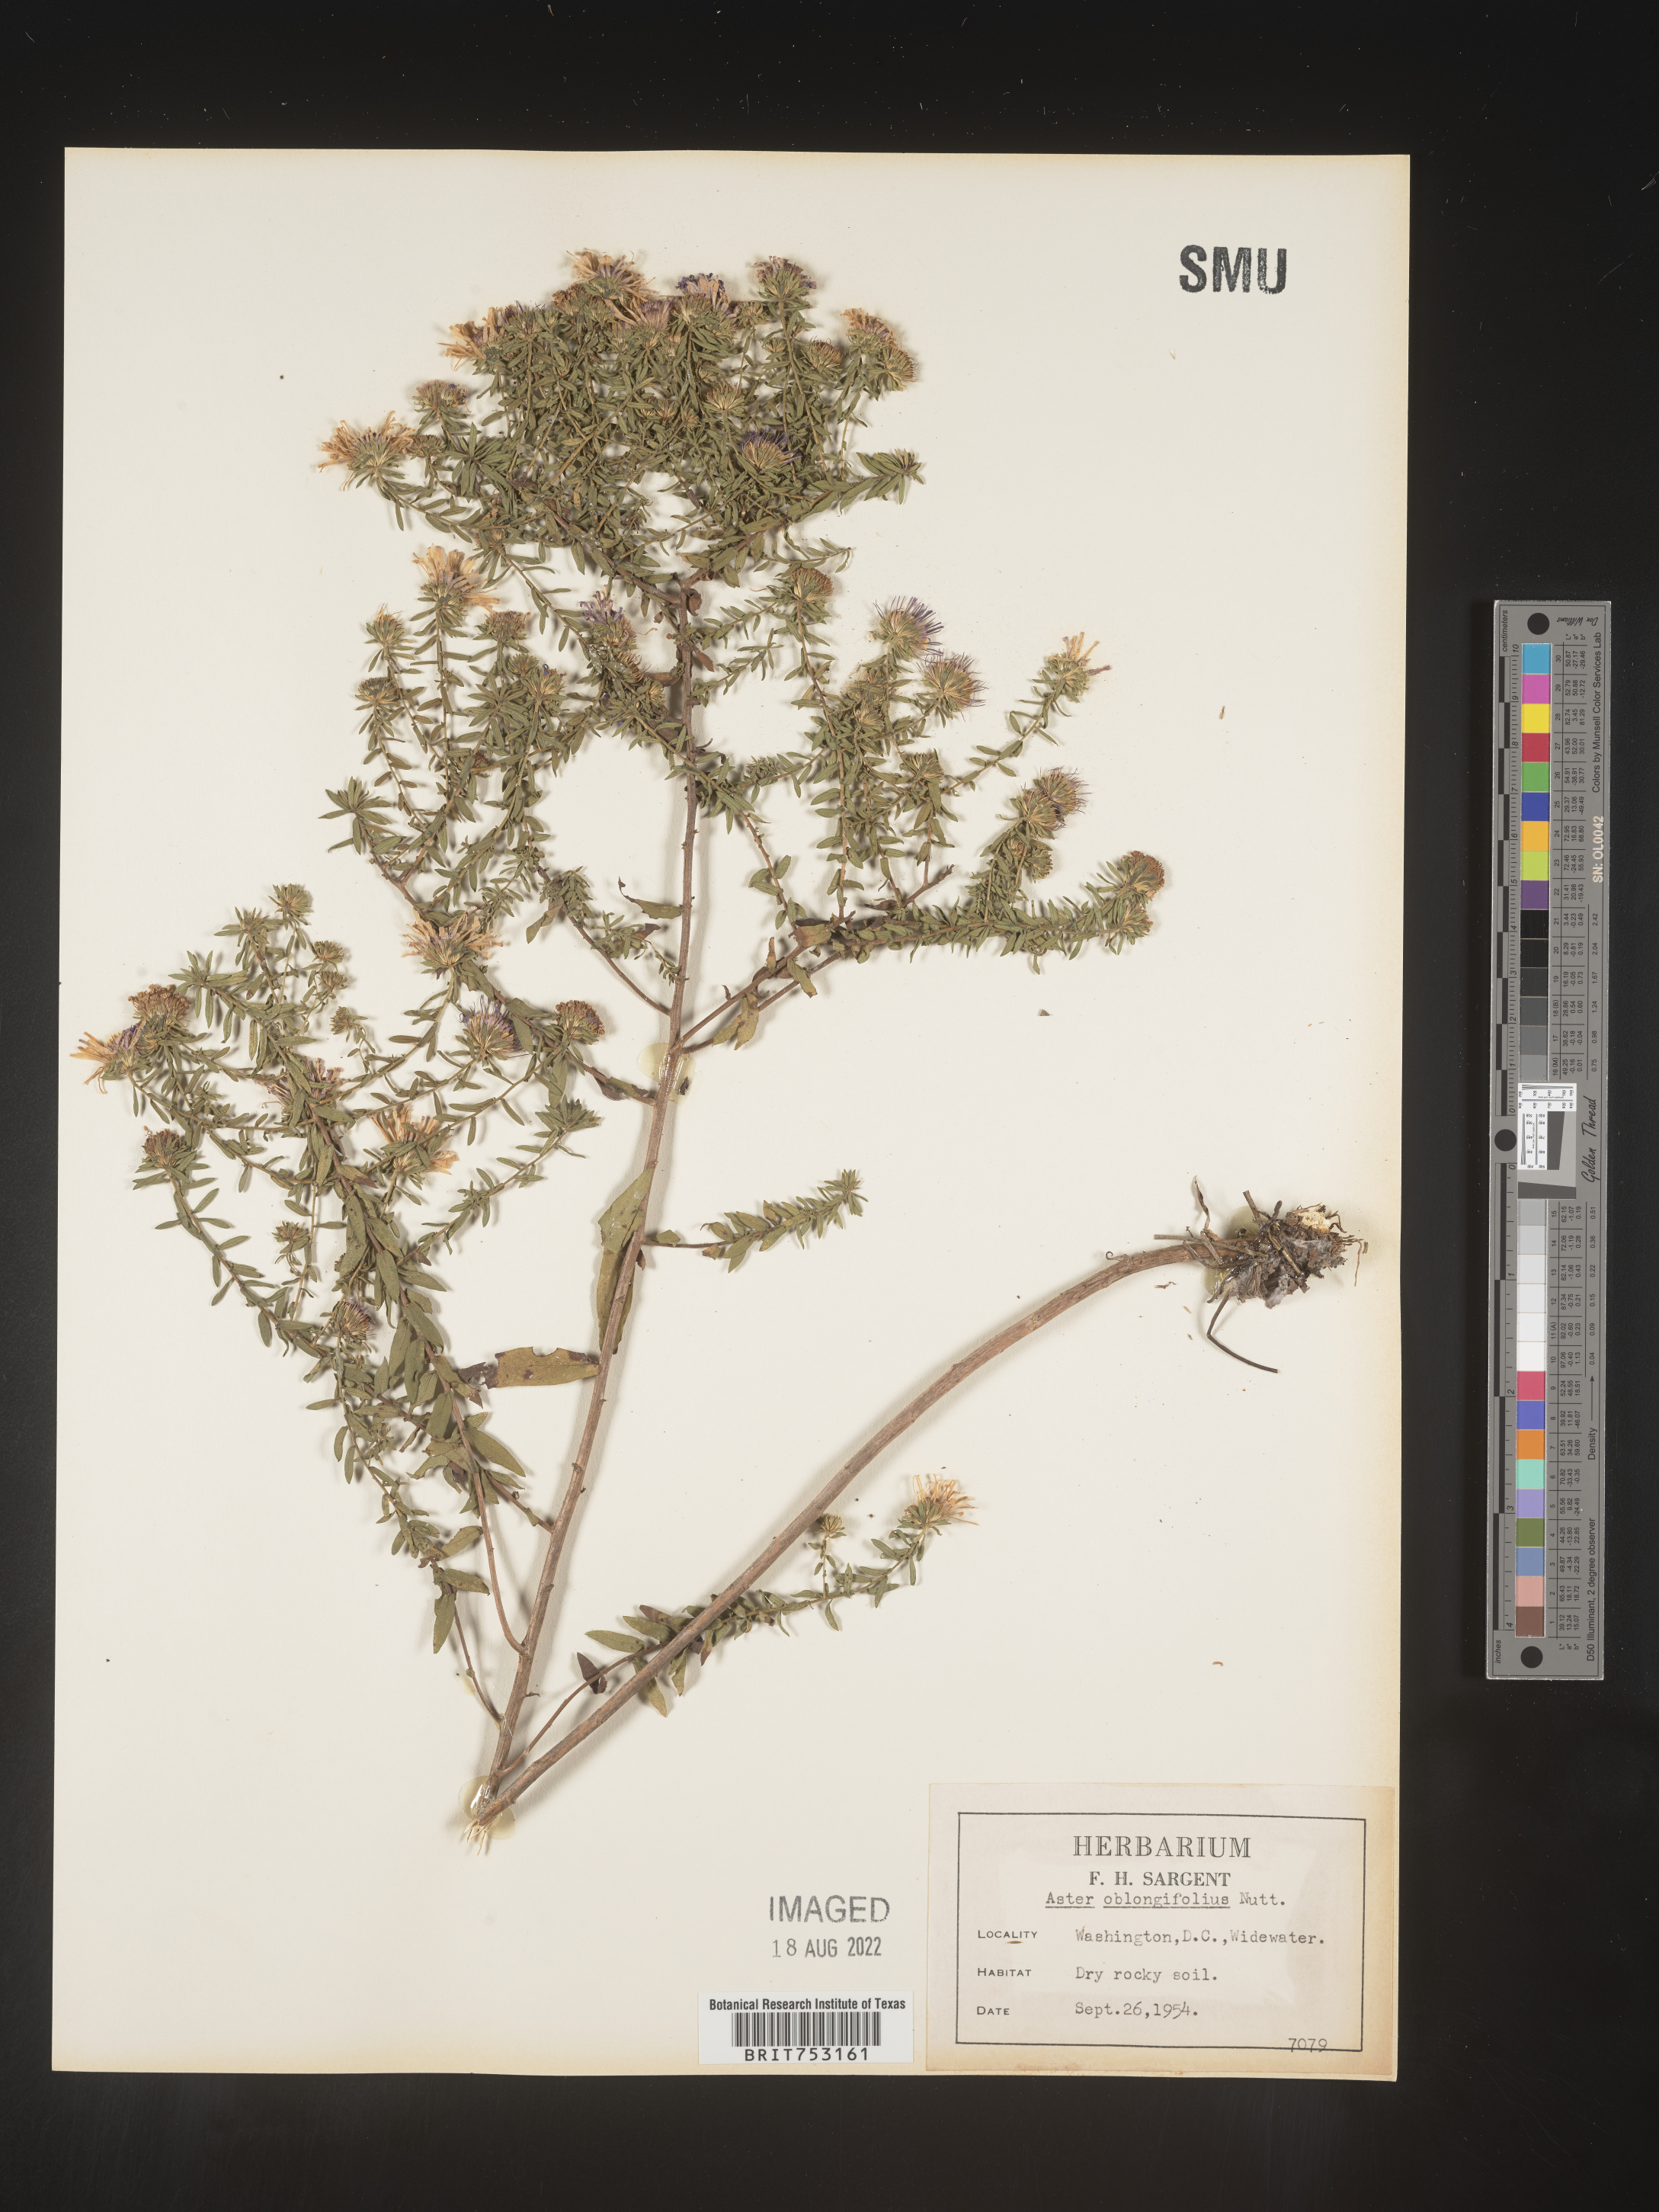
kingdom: Plantae
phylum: Tracheophyta
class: Magnoliopsida
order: Asterales
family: Asteraceae
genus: Symphyotrichum
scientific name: Symphyotrichum oblongifolium
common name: Aromatic aster
